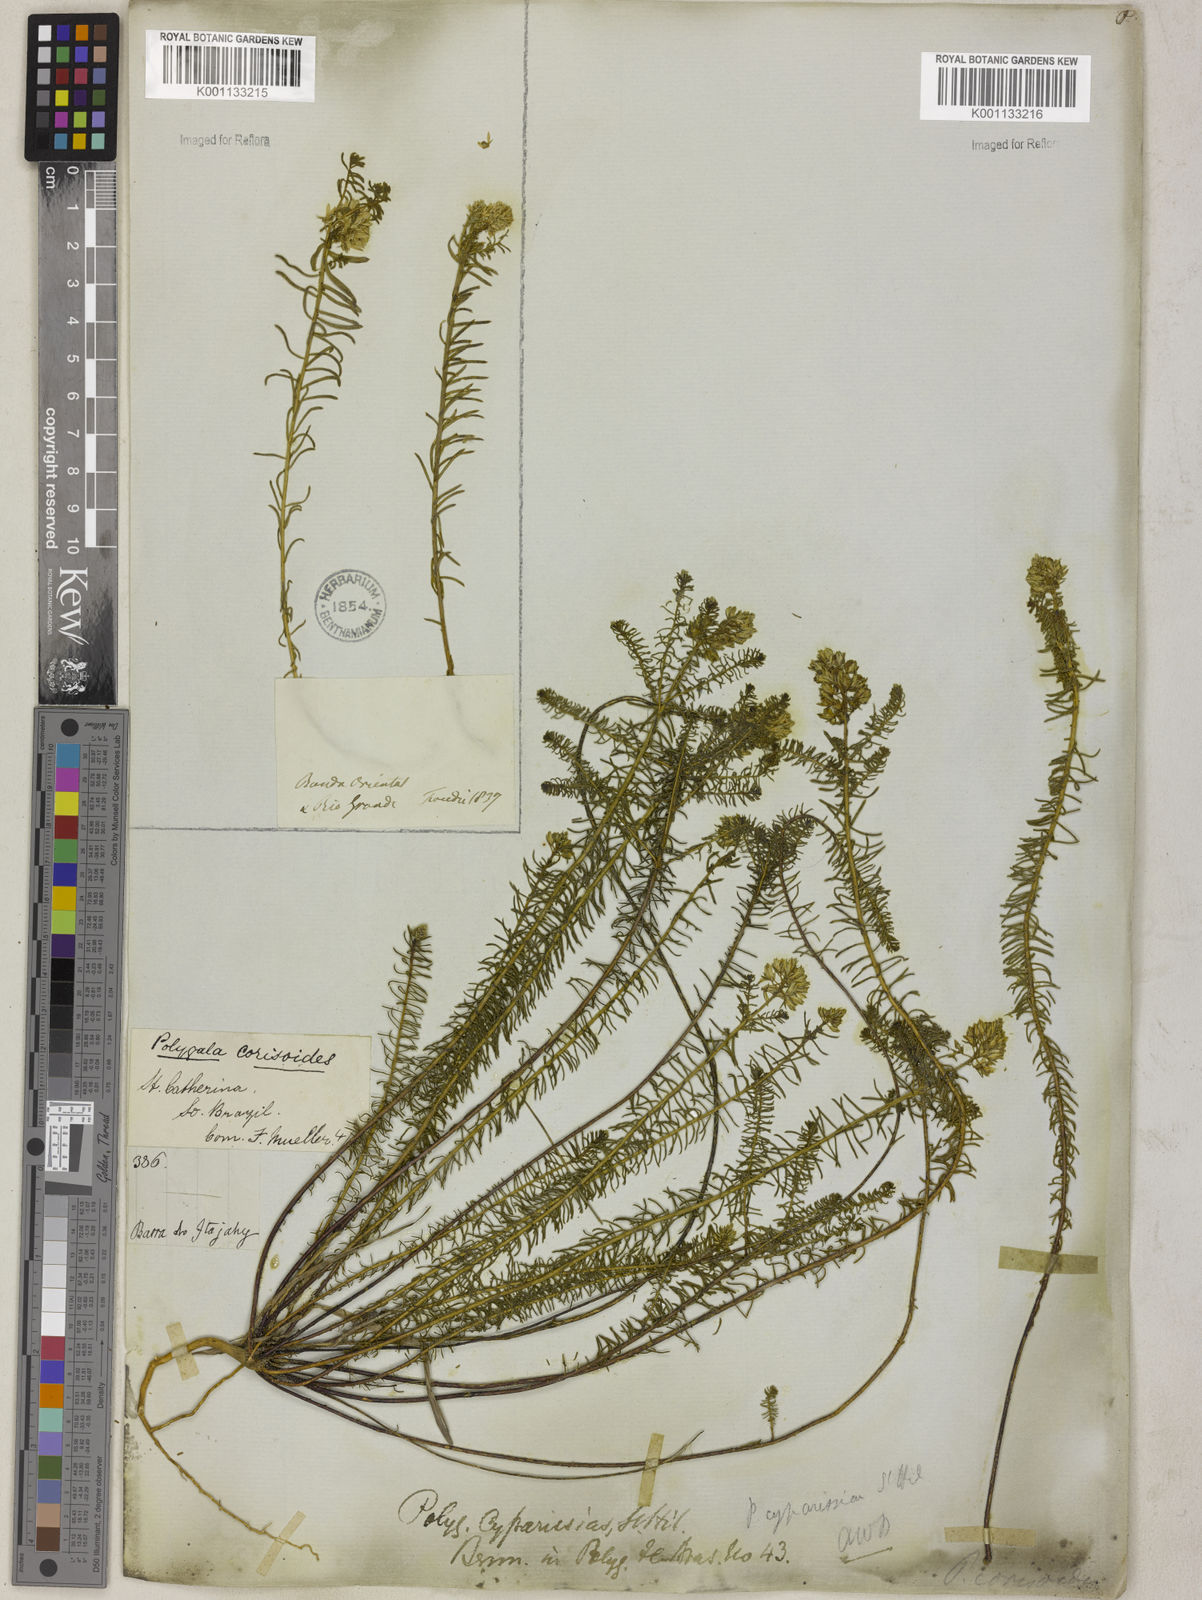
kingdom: Plantae
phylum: Tracheophyta
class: Magnoliopsida
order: Fabales
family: Polygalaceae
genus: Polygala
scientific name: Polygala cyparissias
